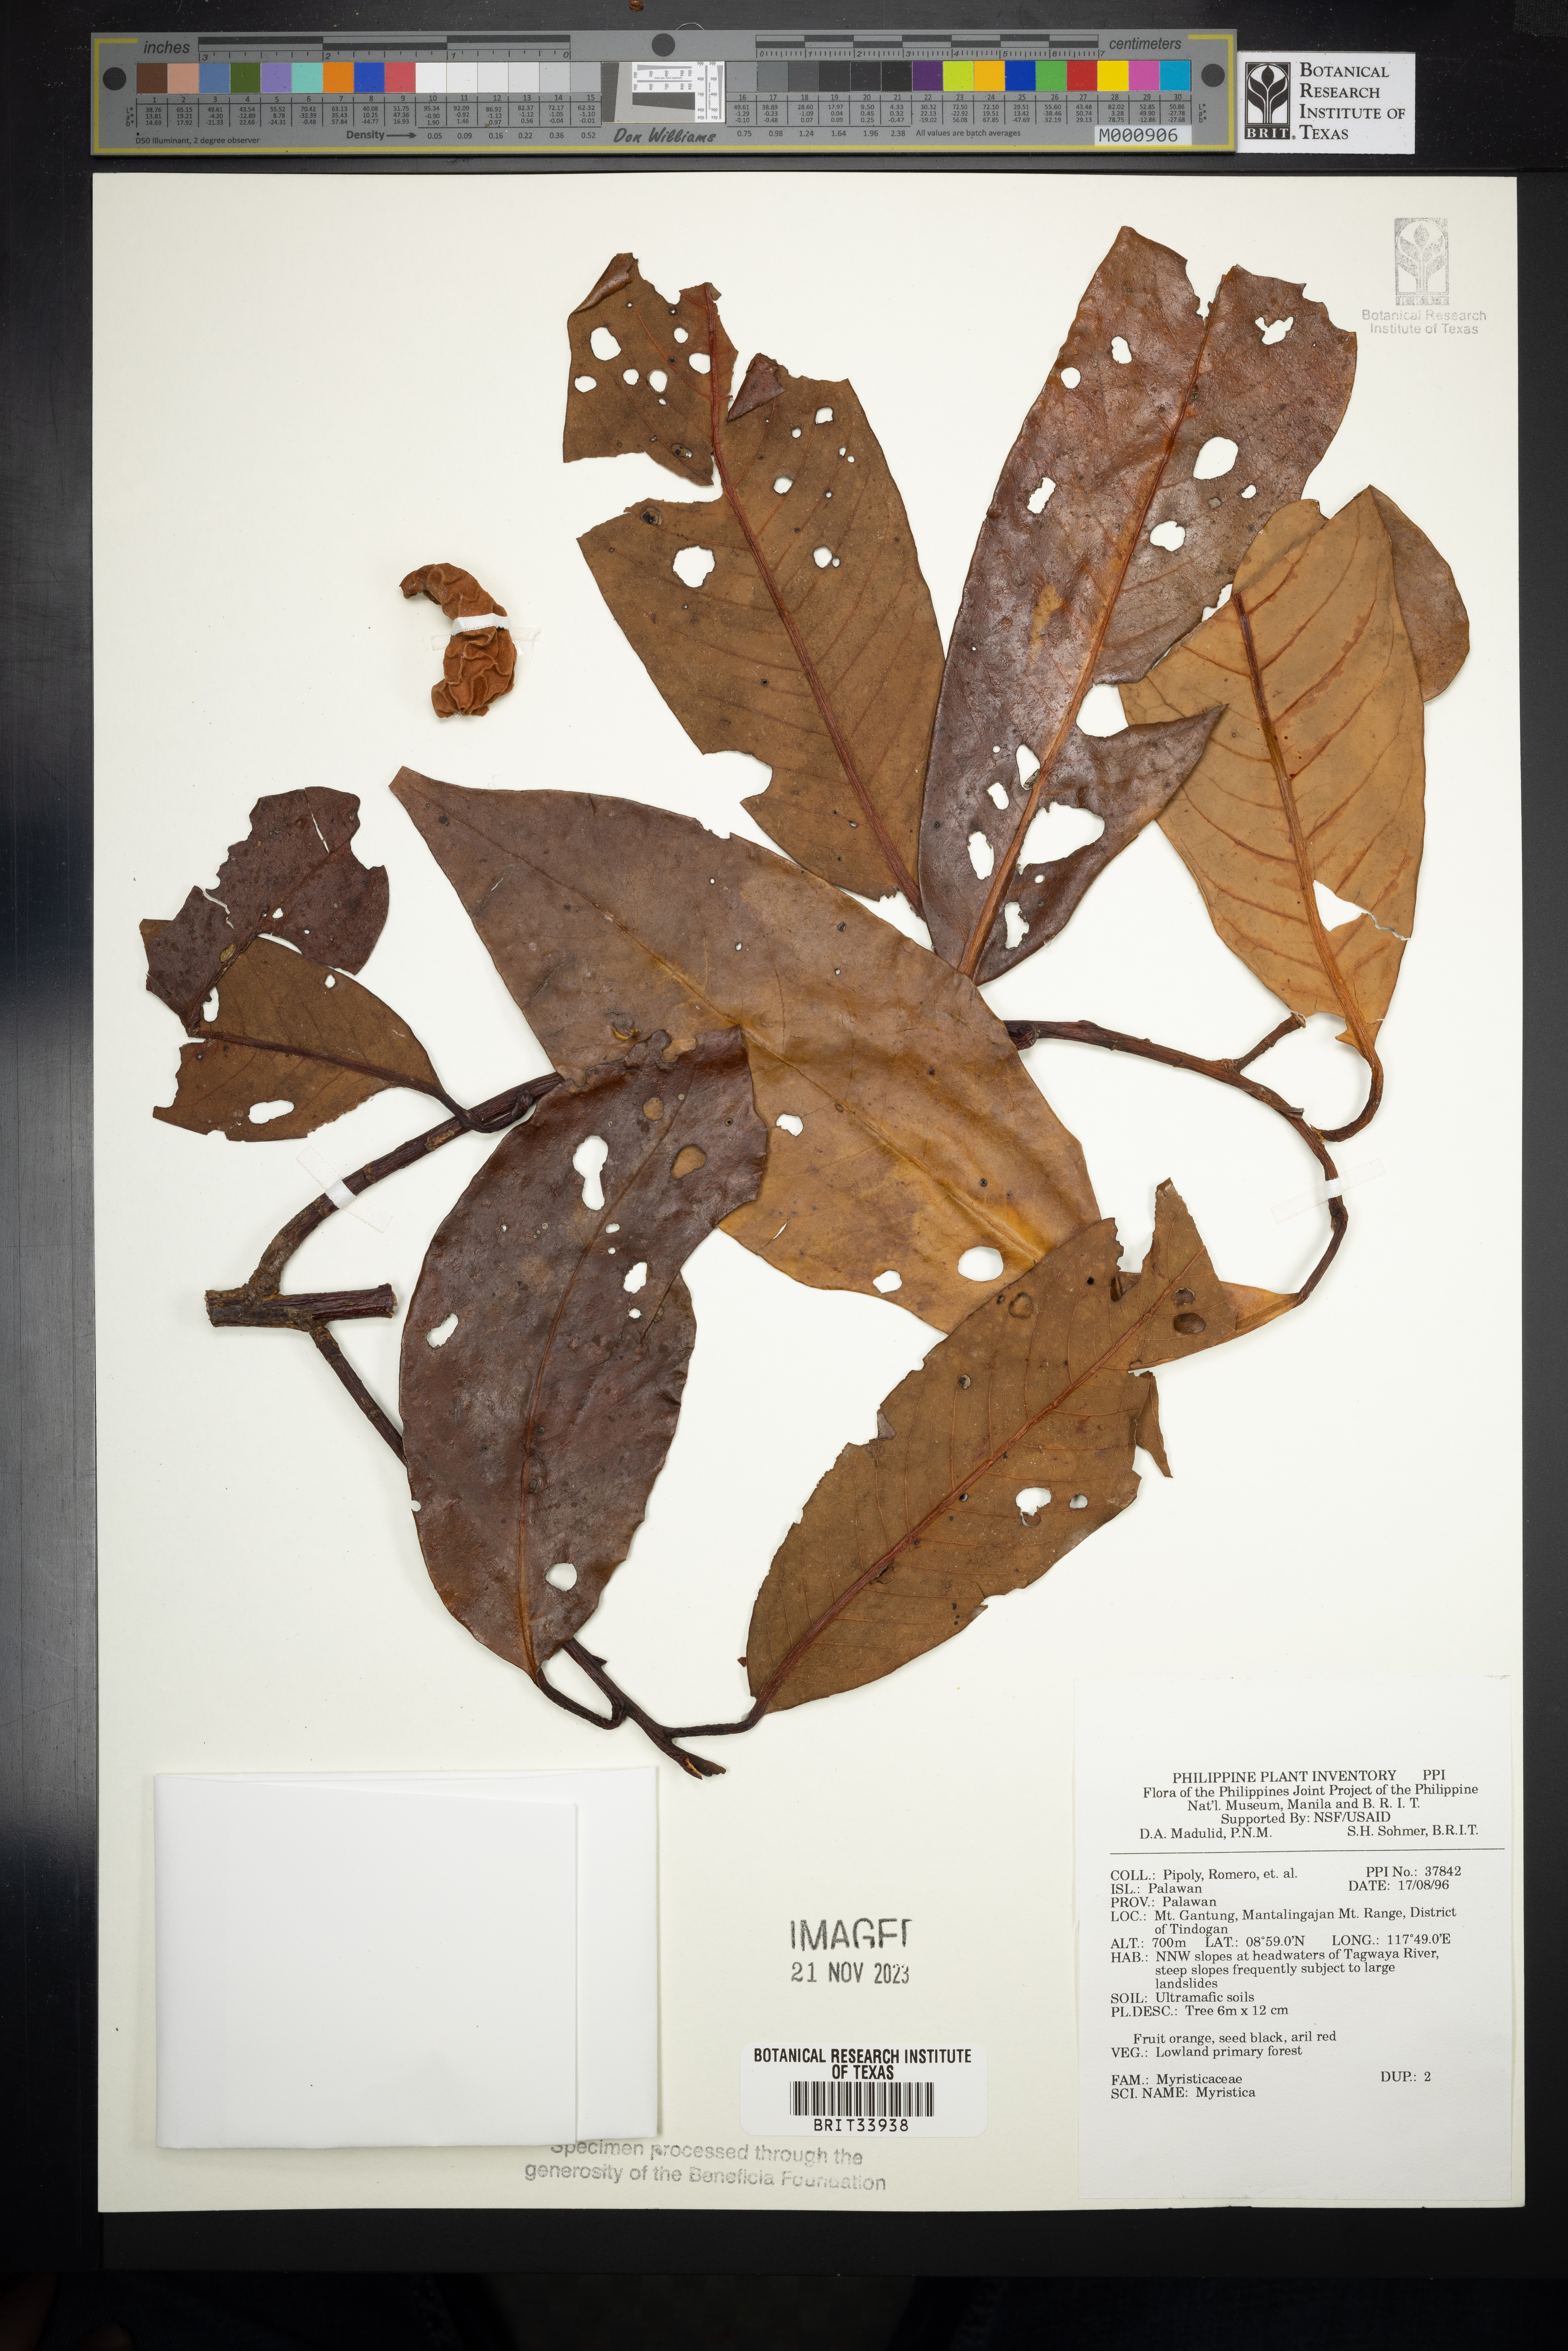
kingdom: Plantae
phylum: Tracheophyta
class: Magnoliopsida
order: Magnoliales
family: Myristicaceae
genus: Myristica
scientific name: Myristica
